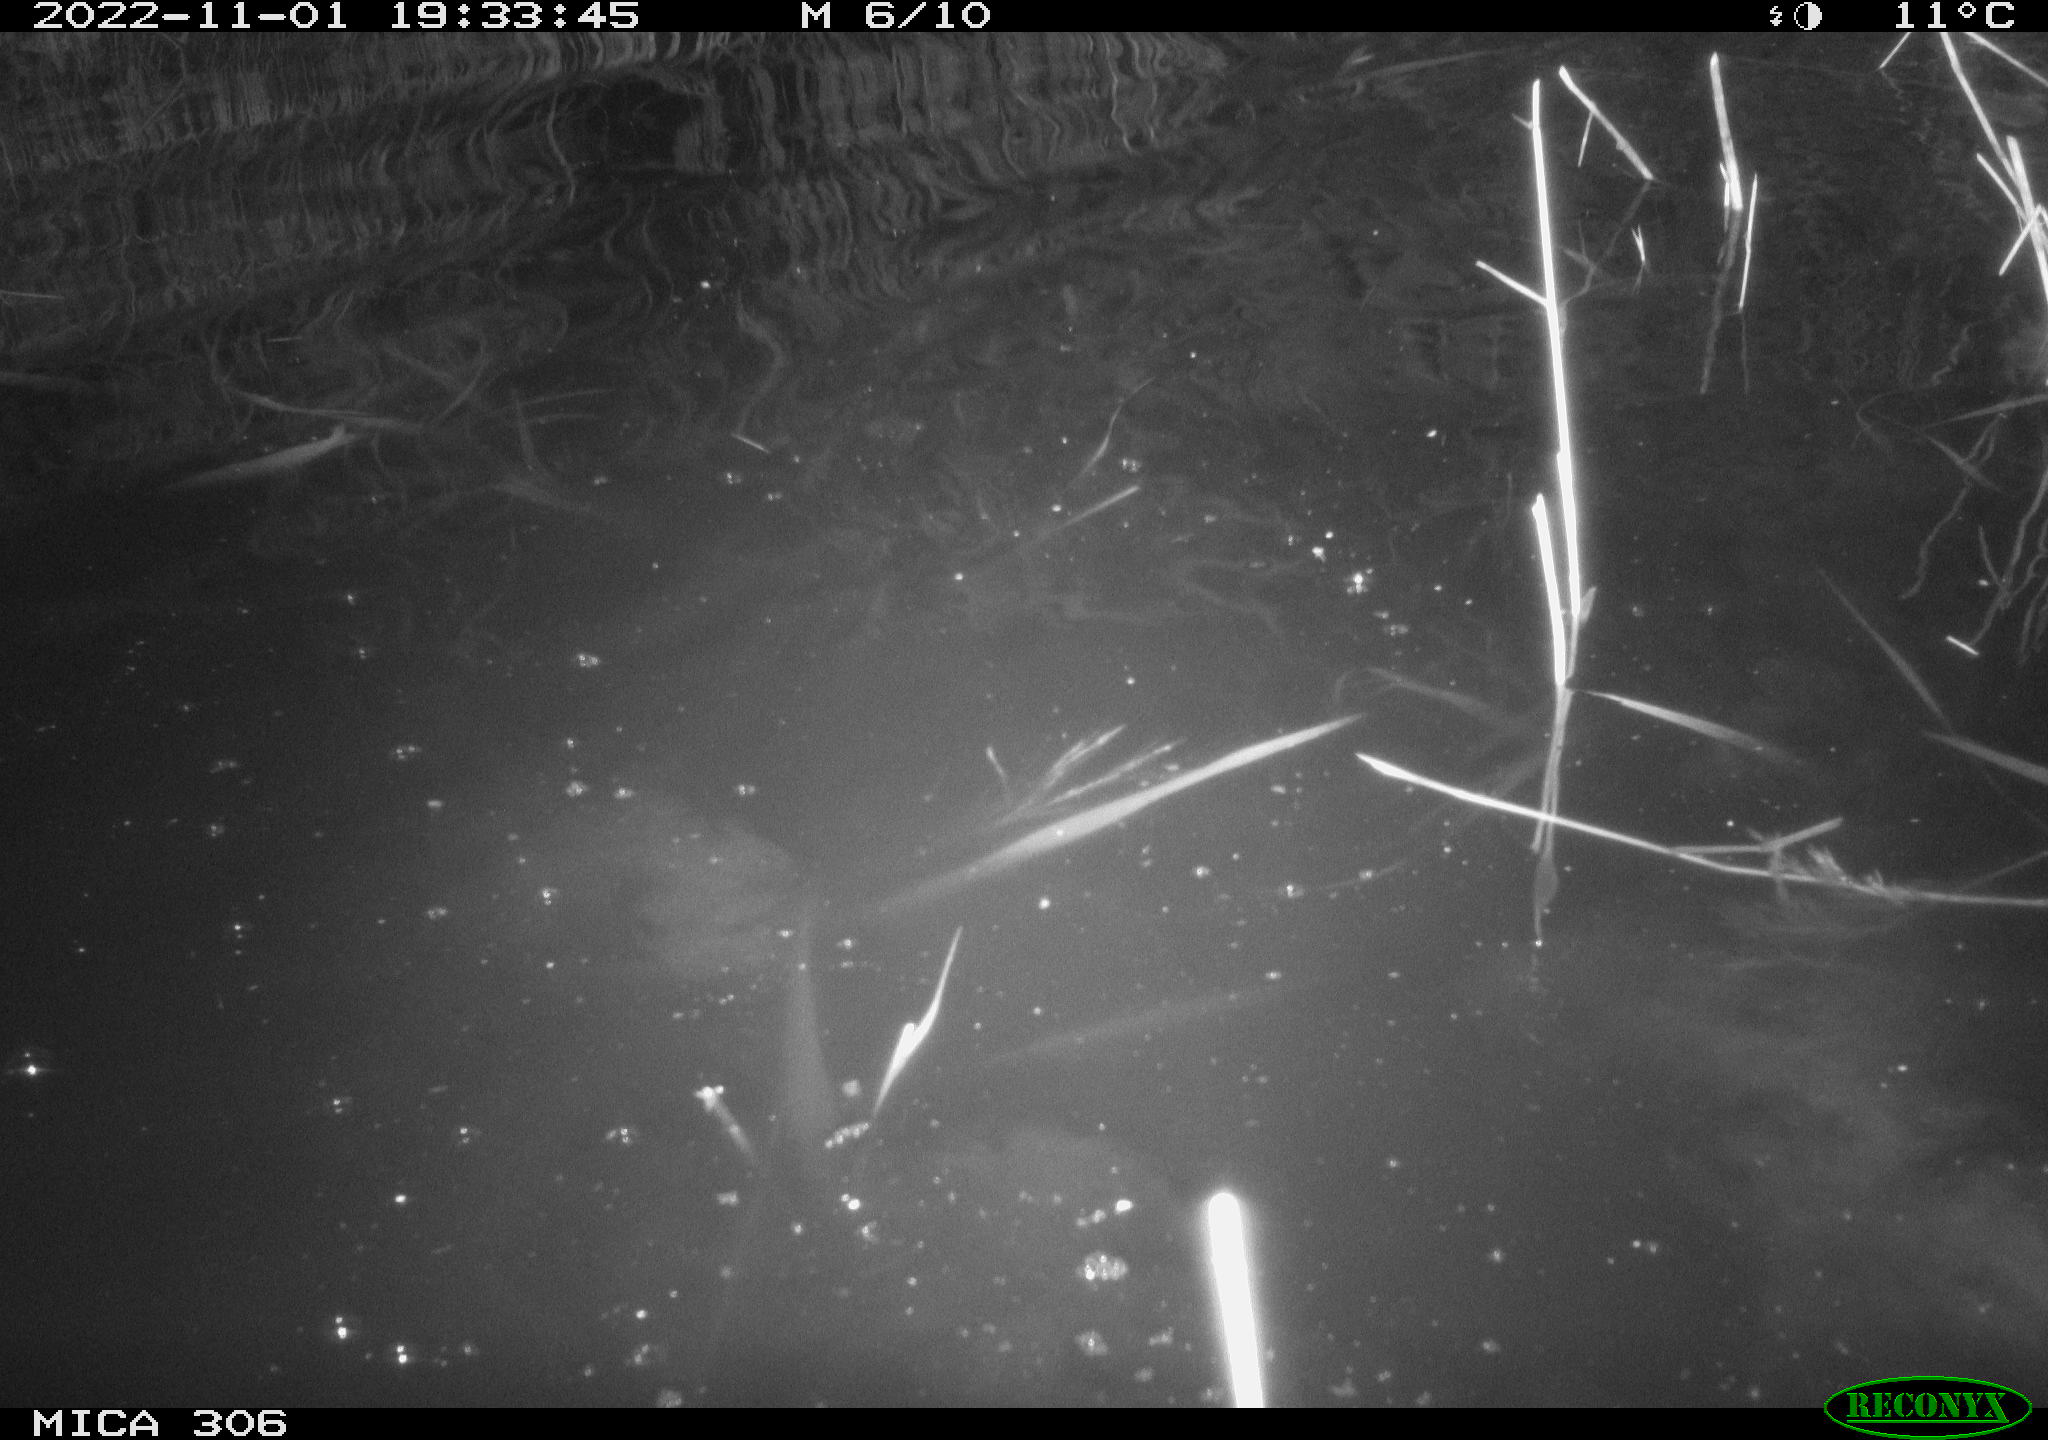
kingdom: Animalia
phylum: Chordata
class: Mammalia
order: Rodentia
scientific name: Rodentia
